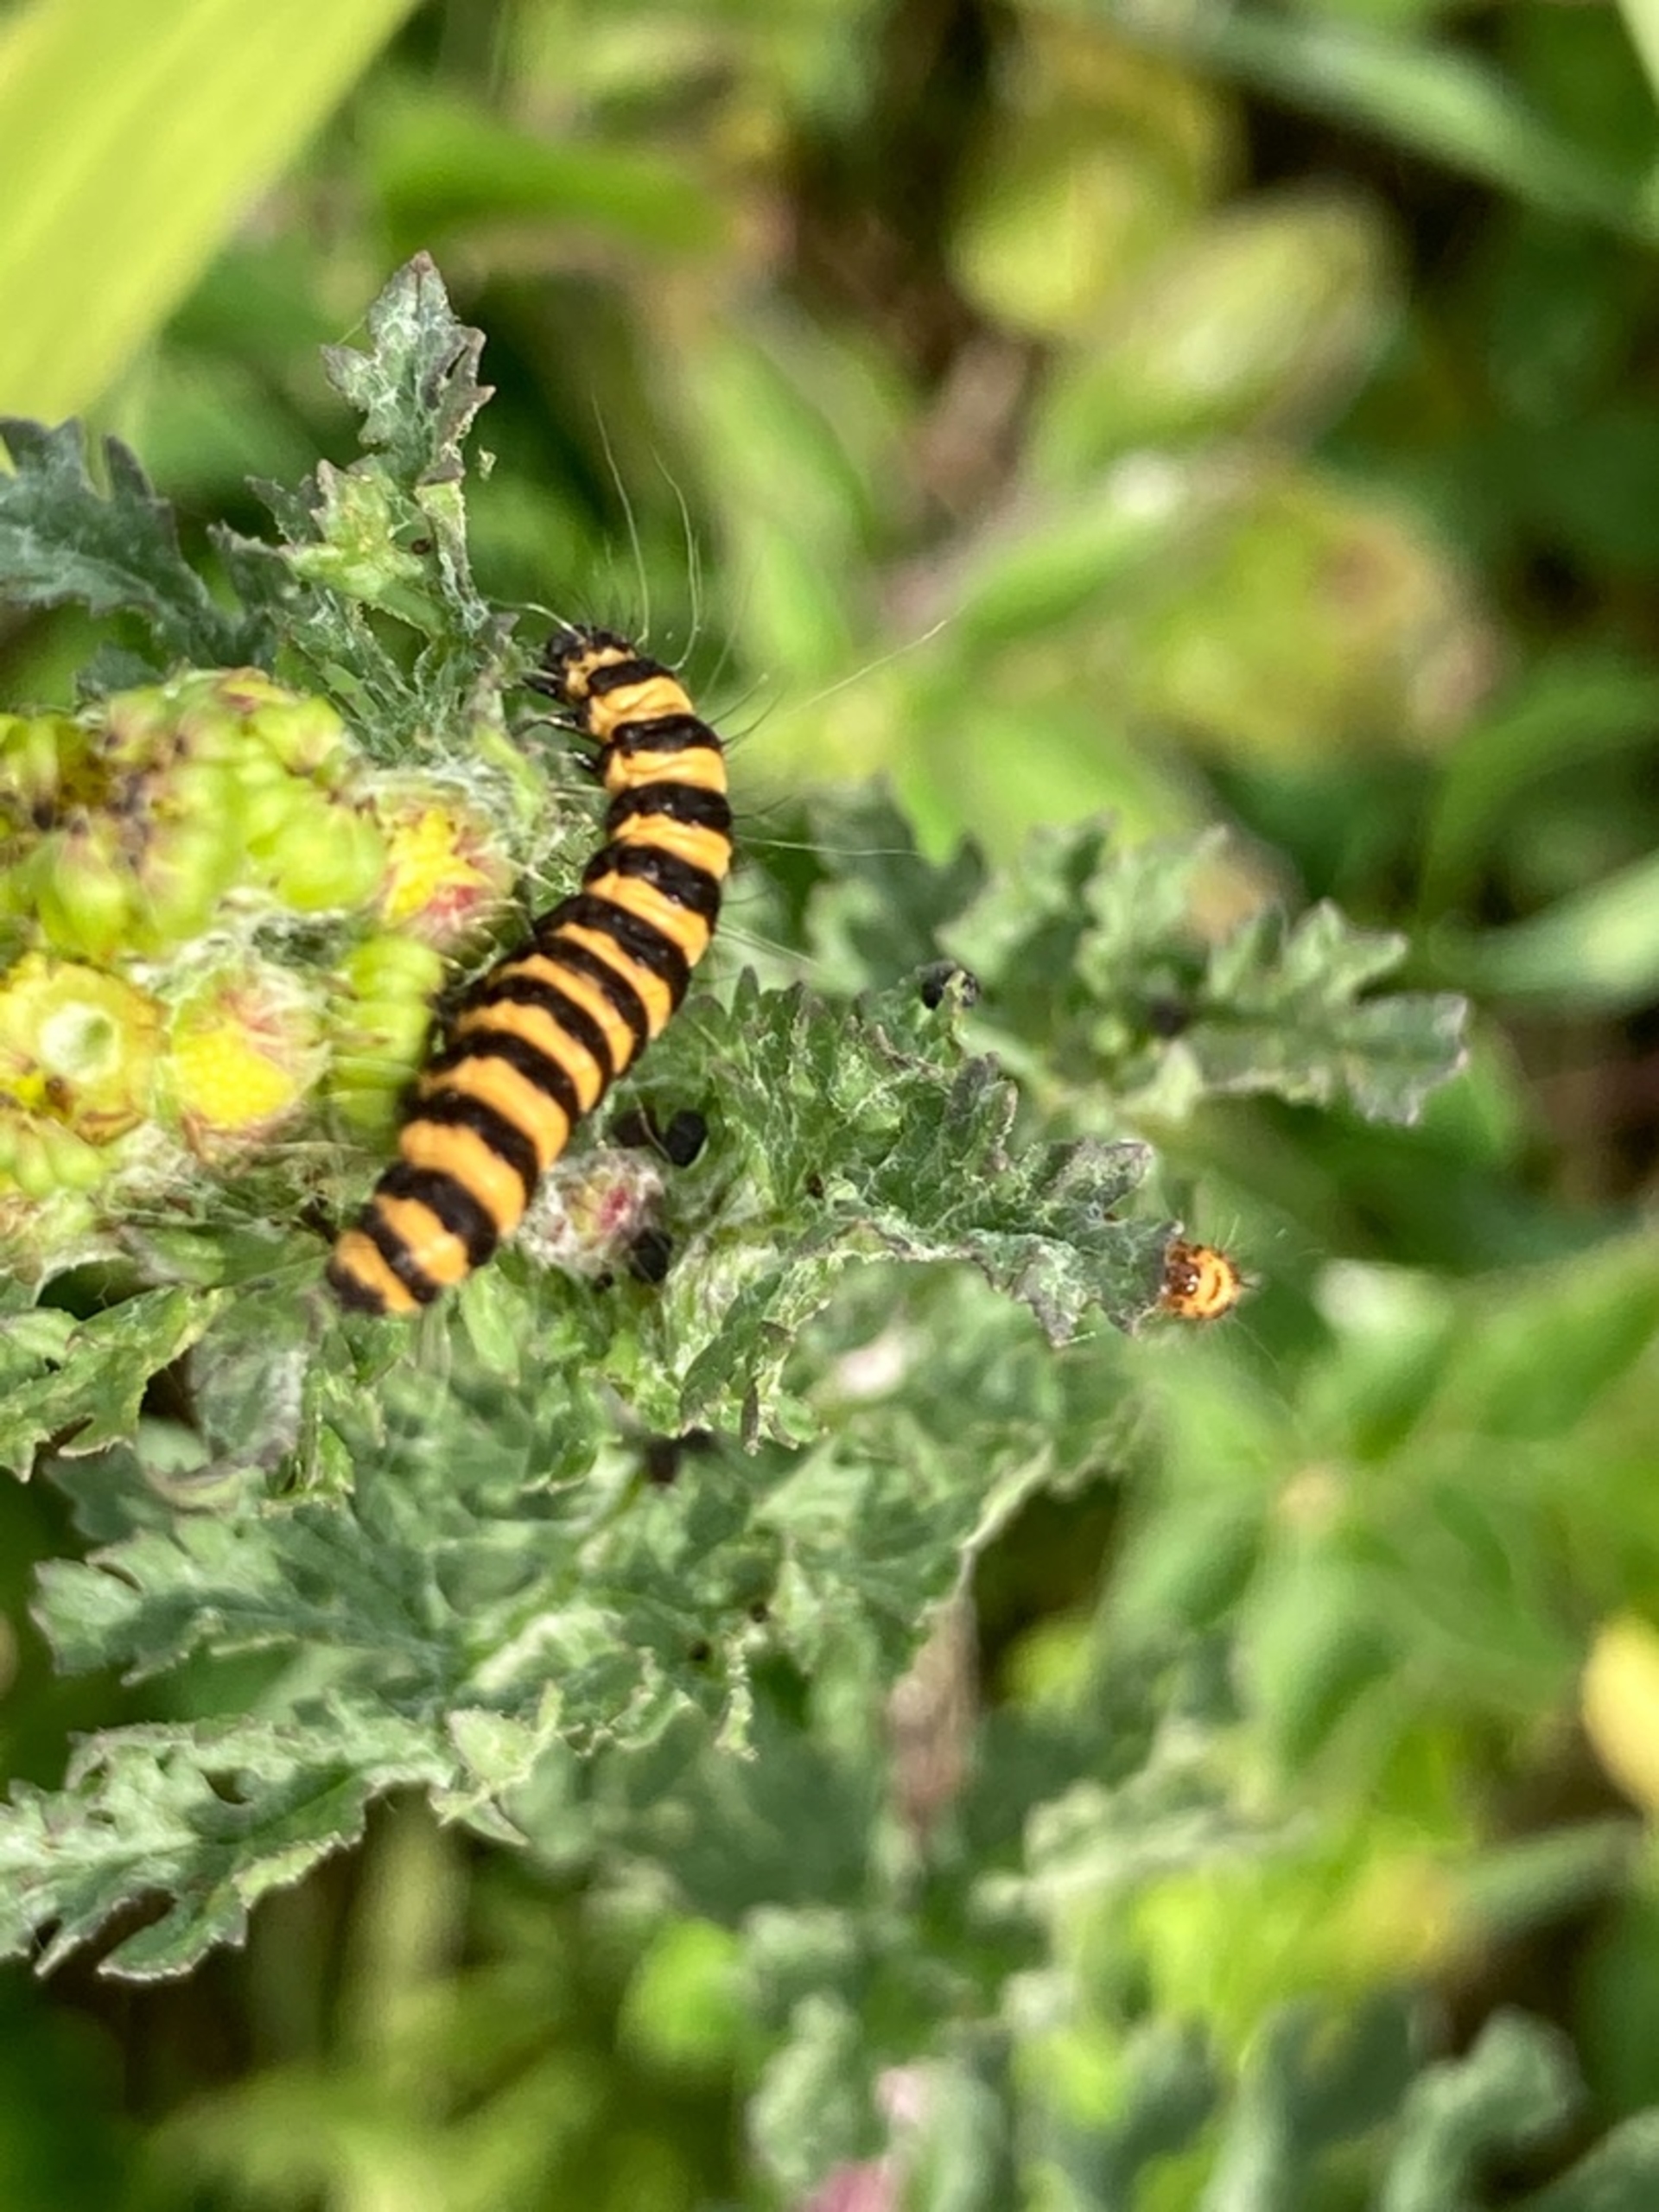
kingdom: Animalia
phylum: Arthropoda
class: Insecta
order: Lepidoptera
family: Erebidae
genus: Tyria
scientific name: Tyria jacobaeae
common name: Blodplet
